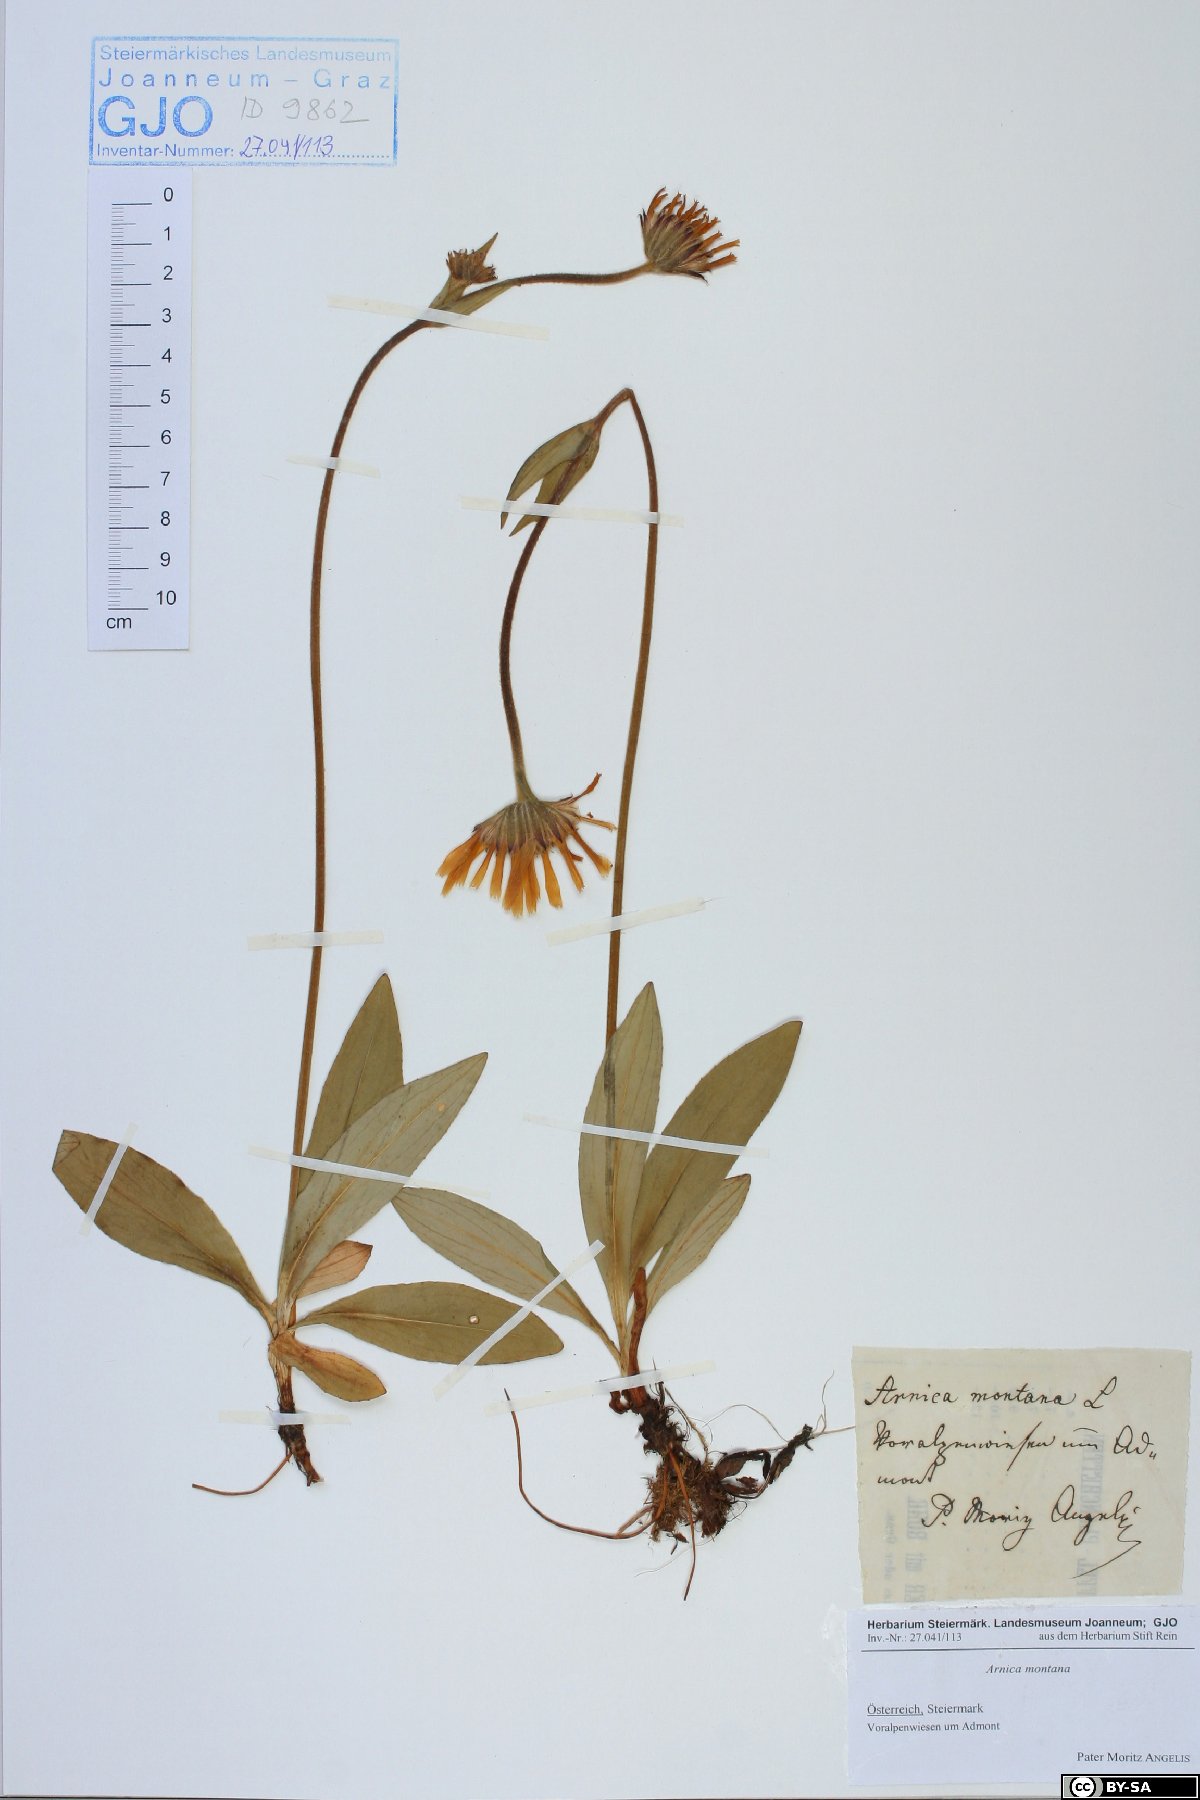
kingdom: Plantae
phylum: Tracheophyta
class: Magnoliopsida
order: Asterales
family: Asteraceae
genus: Arnica
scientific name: Arnica montana
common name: Leopard's bane
